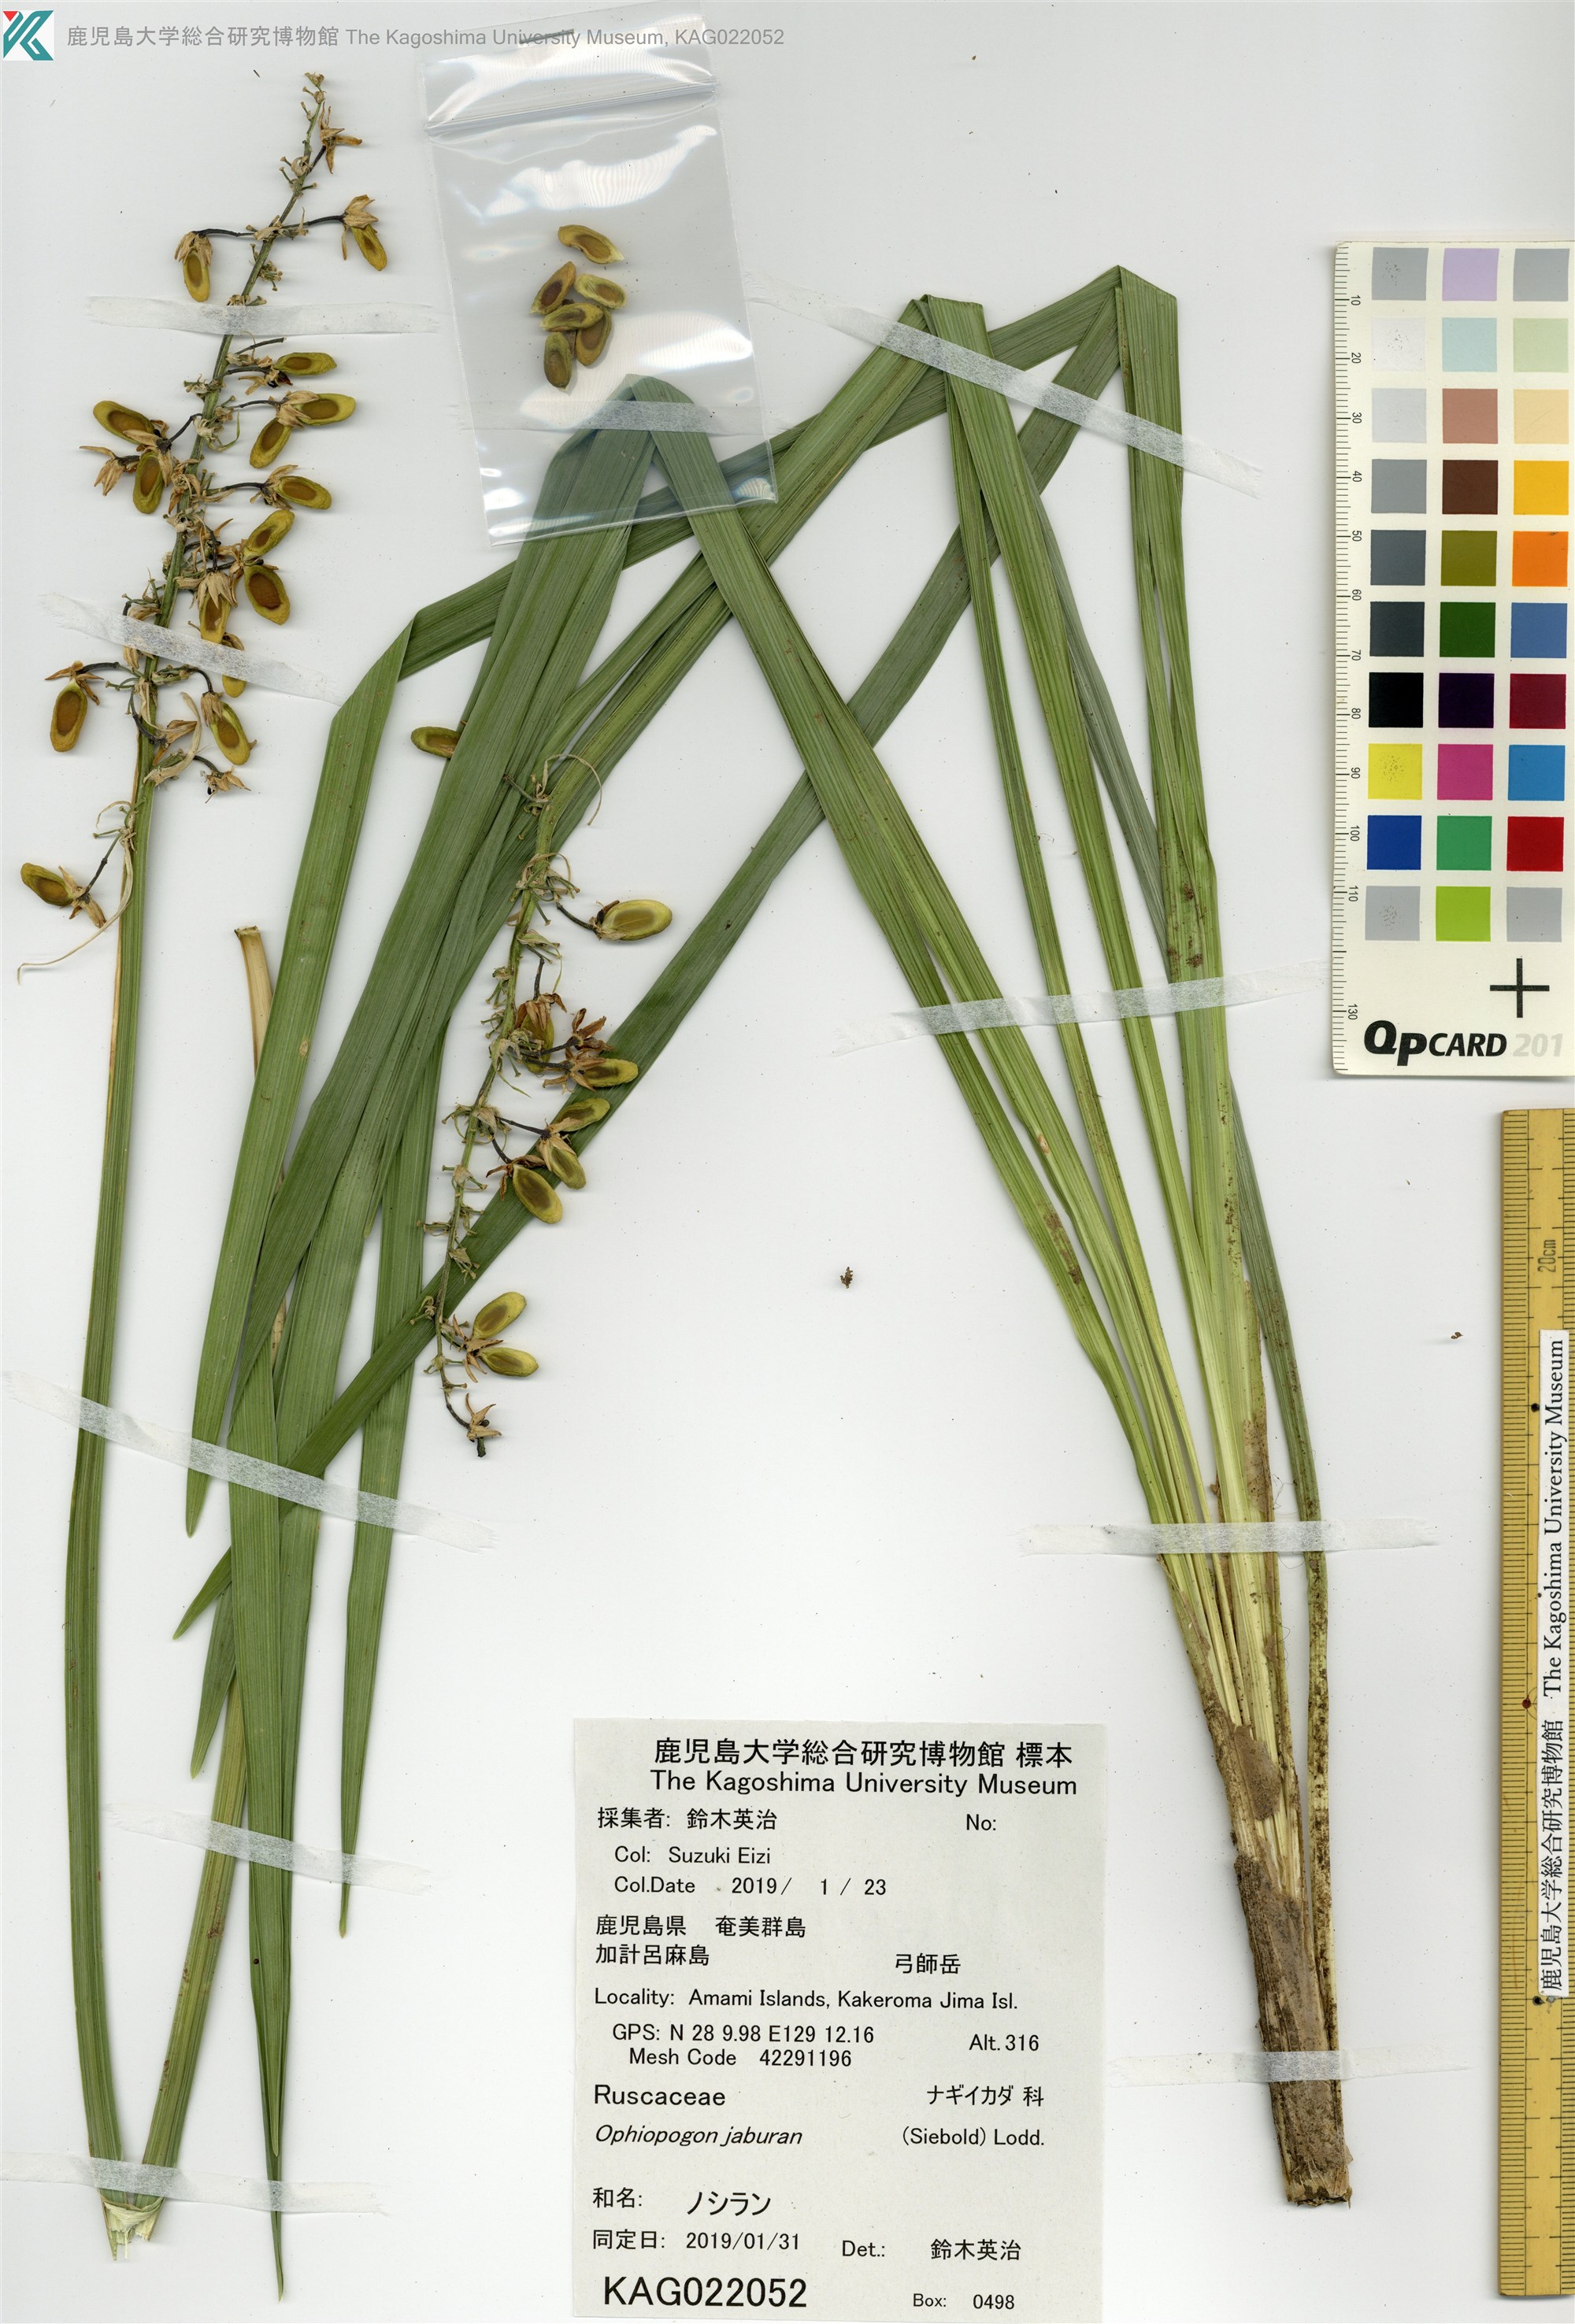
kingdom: Plantae
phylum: Tracheophyta
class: Liliopsida
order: Asparagales
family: Asparagaceae
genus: Ophiopogon
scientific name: Ophiopogon jaburan
